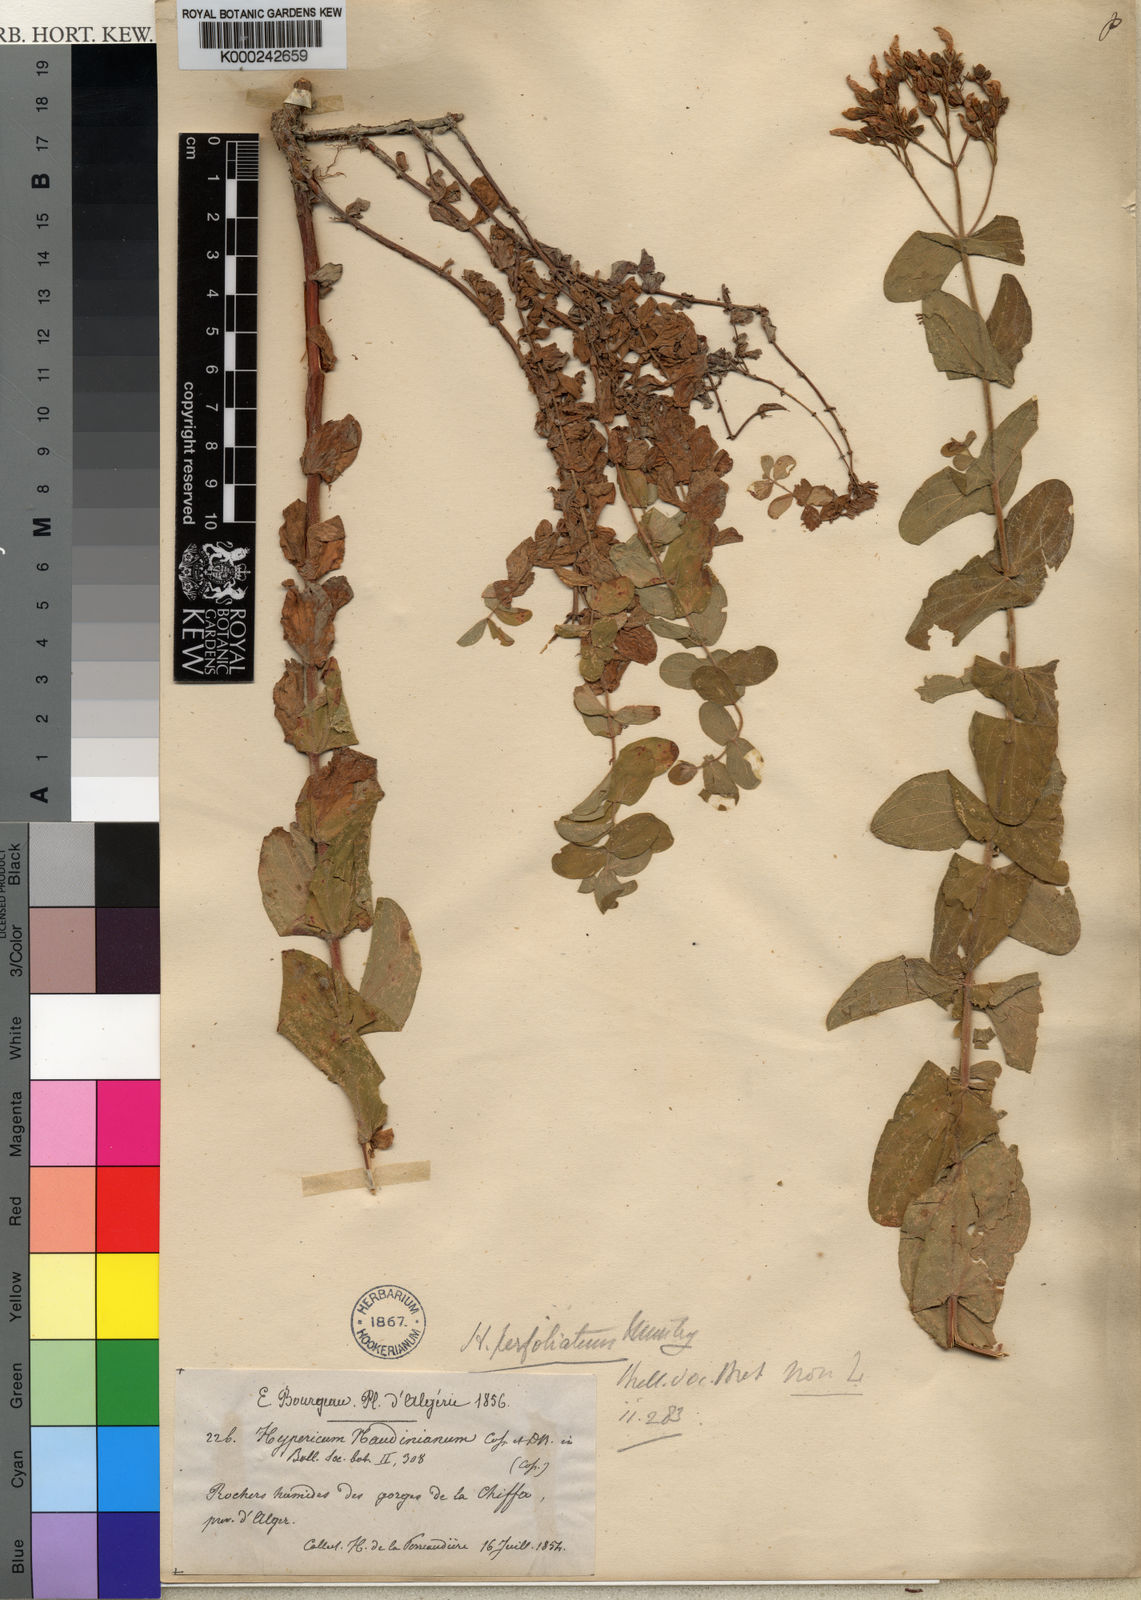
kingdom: Plantae
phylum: Tracheophyta
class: Magnoliopsida
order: Malpighiales
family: Hypericaceae
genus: Hypericum
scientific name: Hypericum naudinianum
